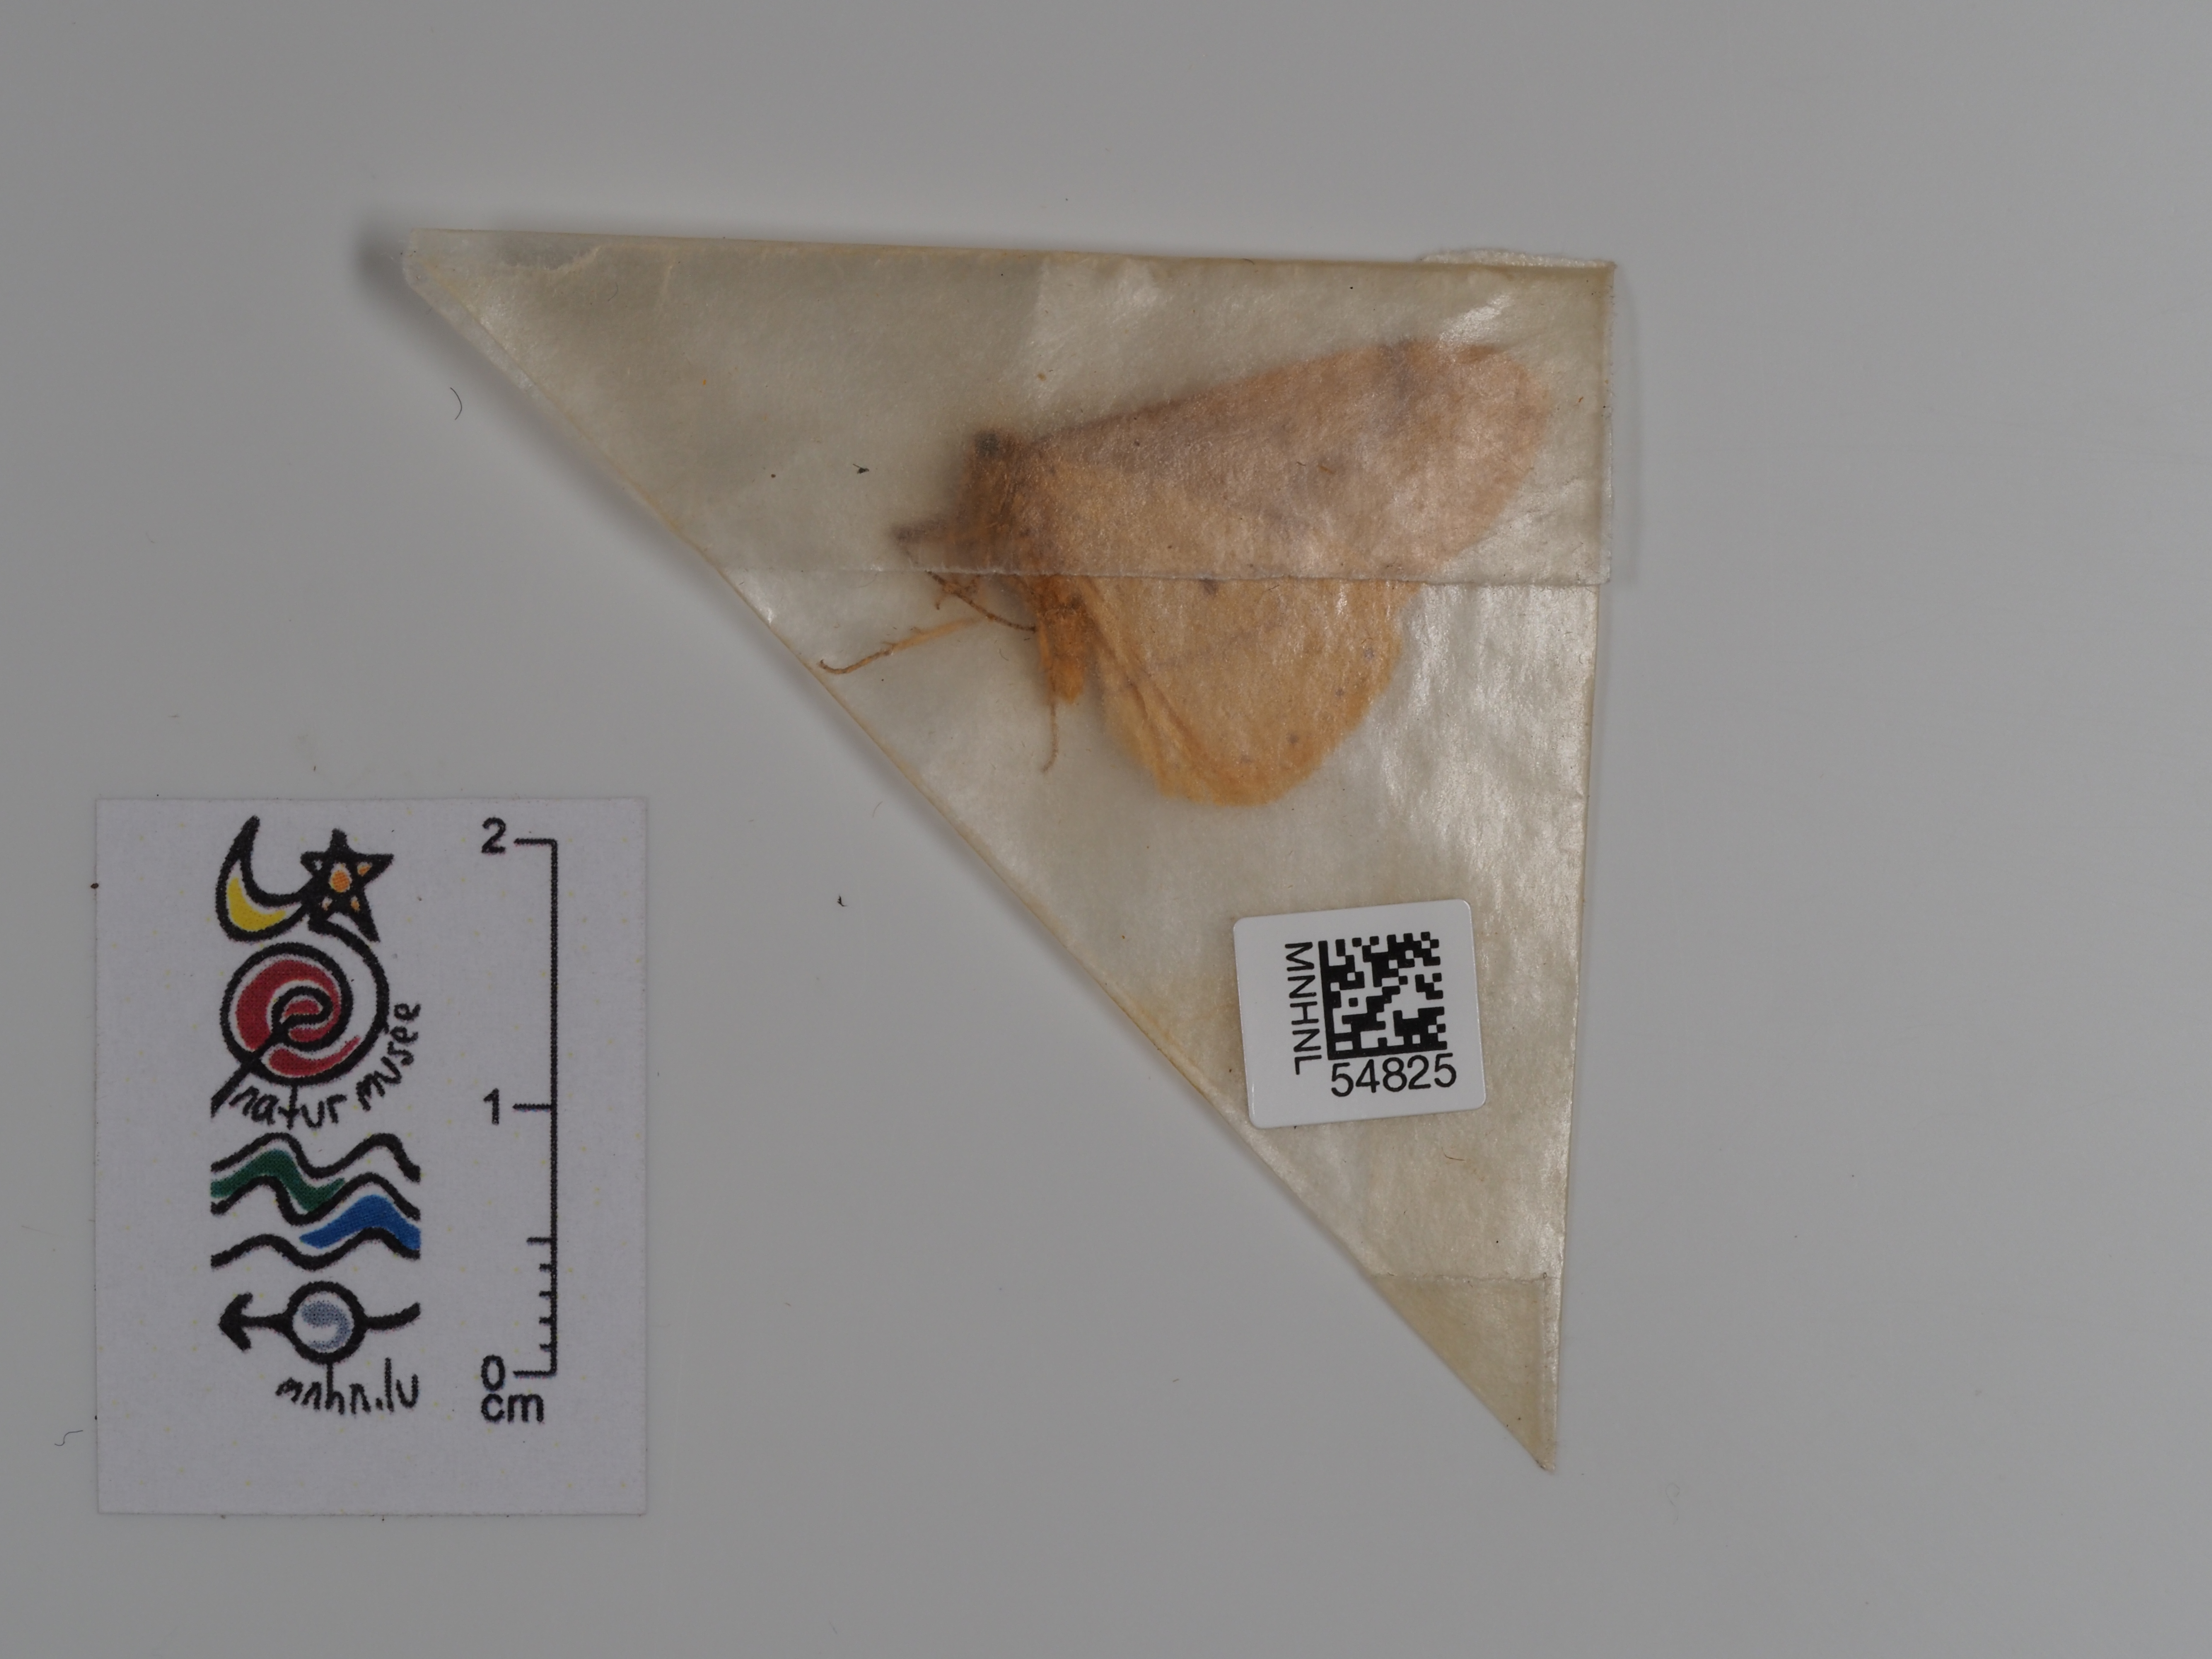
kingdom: Animalia
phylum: Arthropoda
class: Insecta
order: Lepidoptera
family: Geometridae
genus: Agriopis
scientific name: Agriopis aurantiaria
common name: Scarce umber
